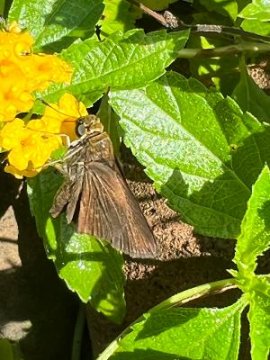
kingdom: Animalia
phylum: Arthropoda
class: Insecta
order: Lepidoptera
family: Hesperiidae
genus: Euphyes
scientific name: Euphyes vestris
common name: Dun Skipper
